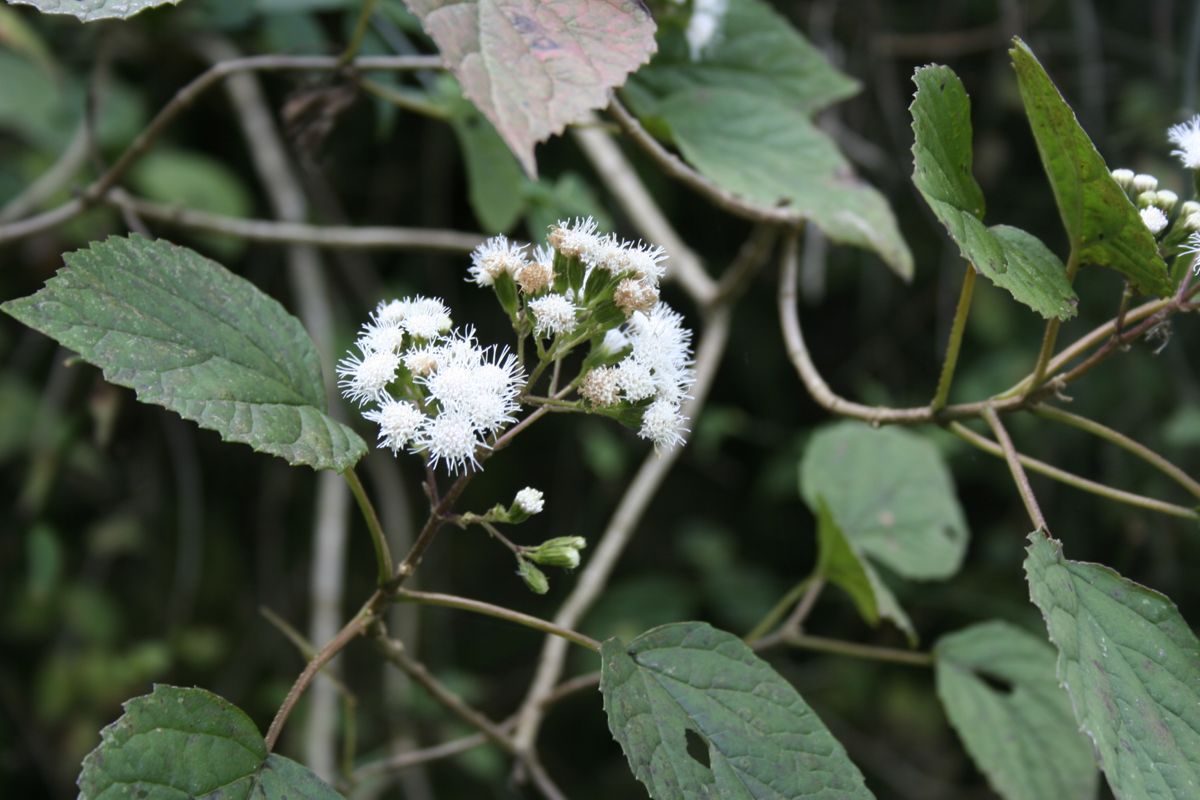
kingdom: Plantae
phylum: Tracheophyta
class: Magnoliopsida
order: Asterales
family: Asteraceae
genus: Fleischmannia
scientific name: Fleischmannia capillipes
